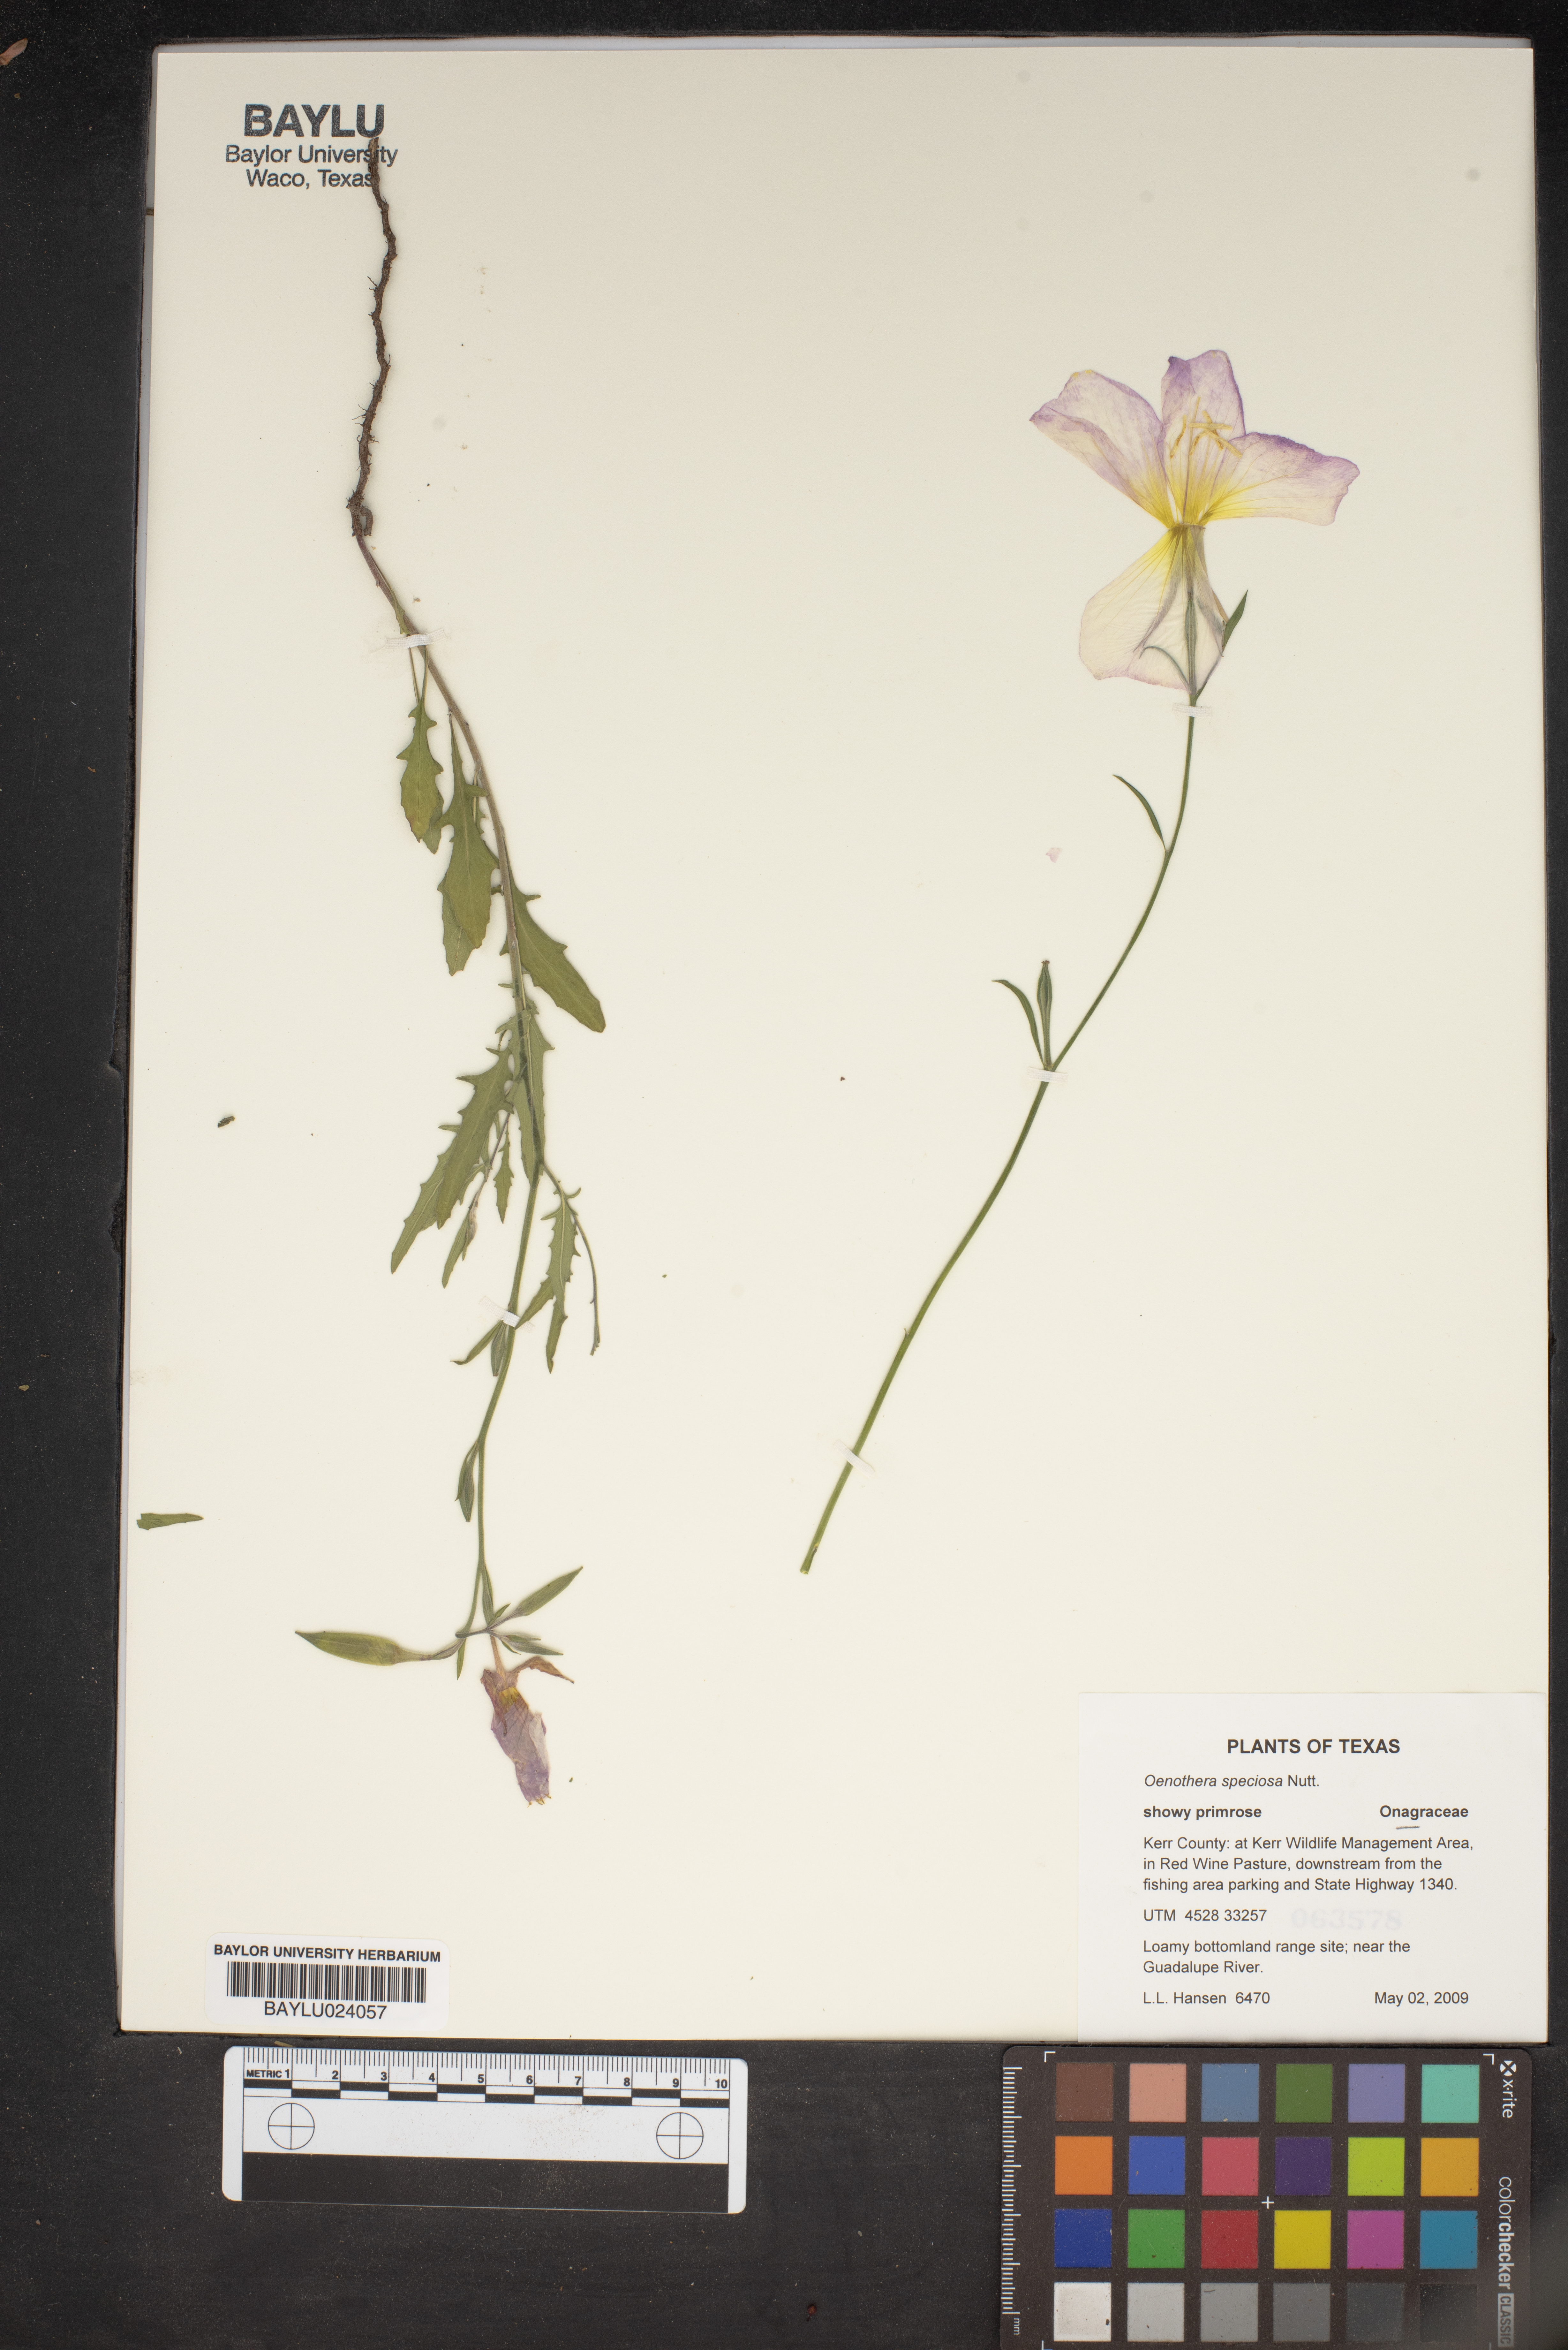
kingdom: Plantae
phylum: Tracheophyta
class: Magnoliopsida
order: Myrtales
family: Onagraceae
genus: Oenothera
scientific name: Oenothera speciosa
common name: White evening-primrose
